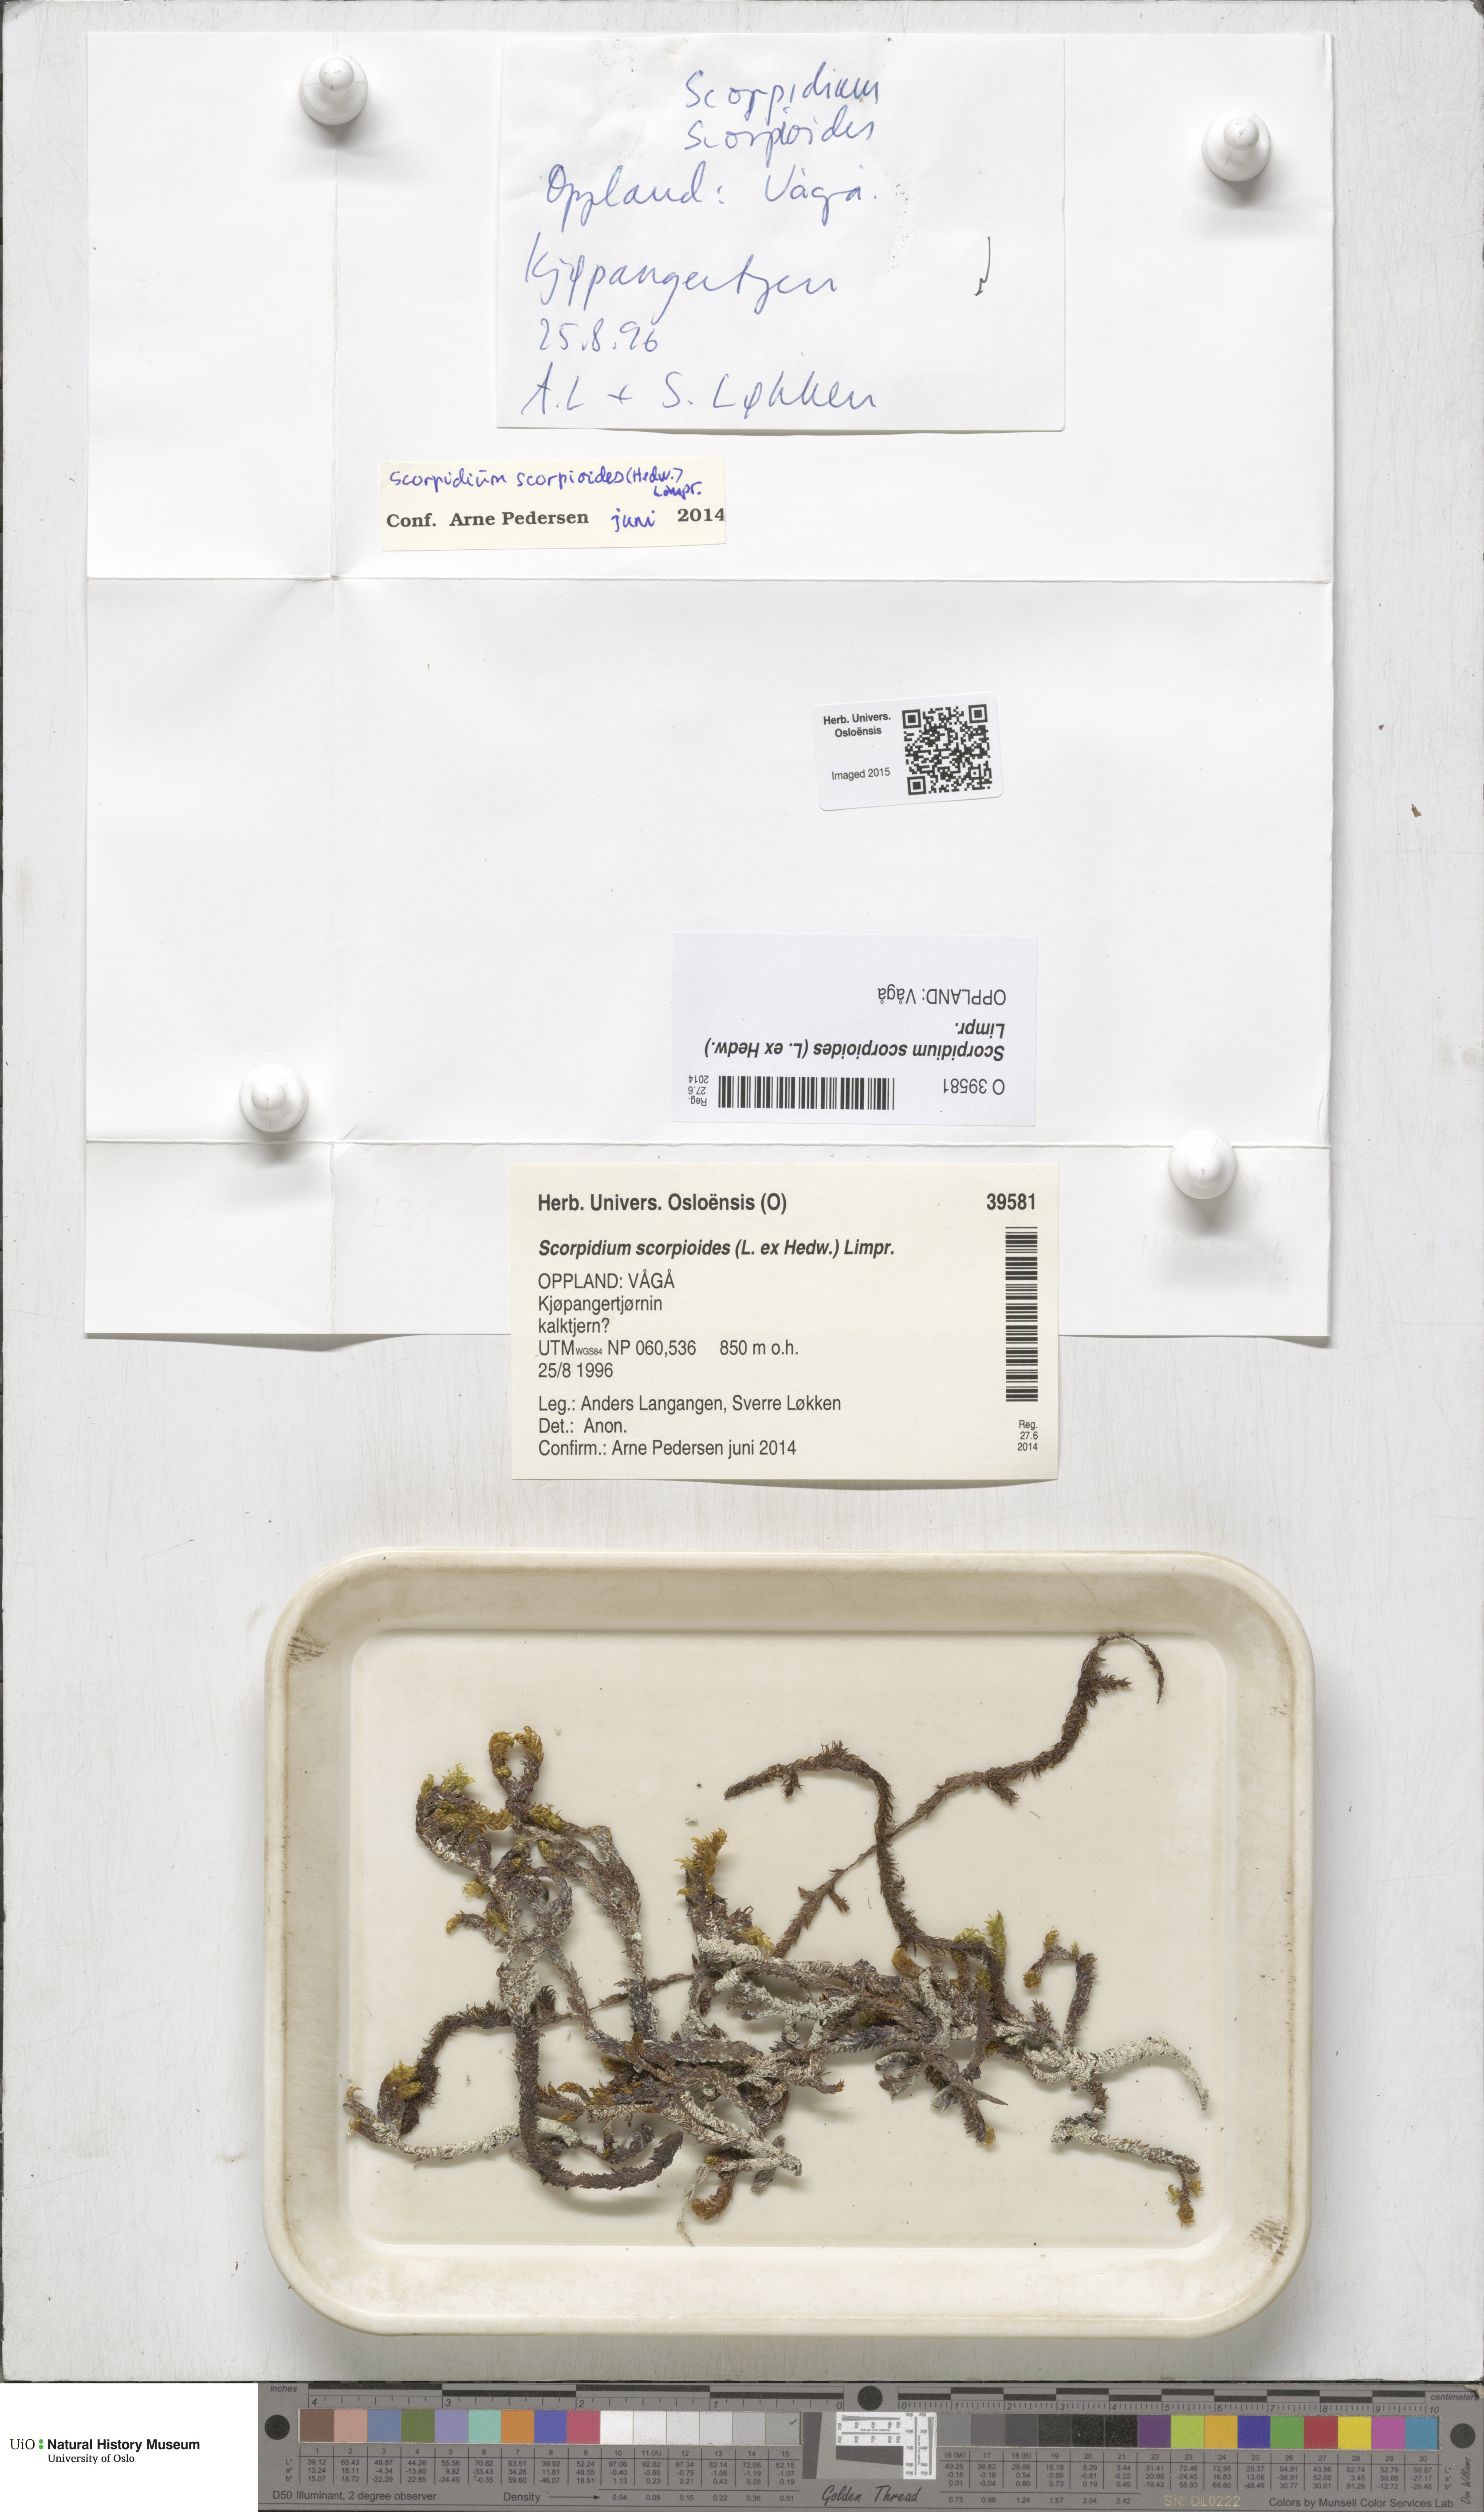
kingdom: Plantae
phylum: Bryophyta
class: Bryopsida
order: Hypnales
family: Scorpidiaceae
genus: Scorpidium
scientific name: Scorpidium scorpioides
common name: Hooked scorpion moss
